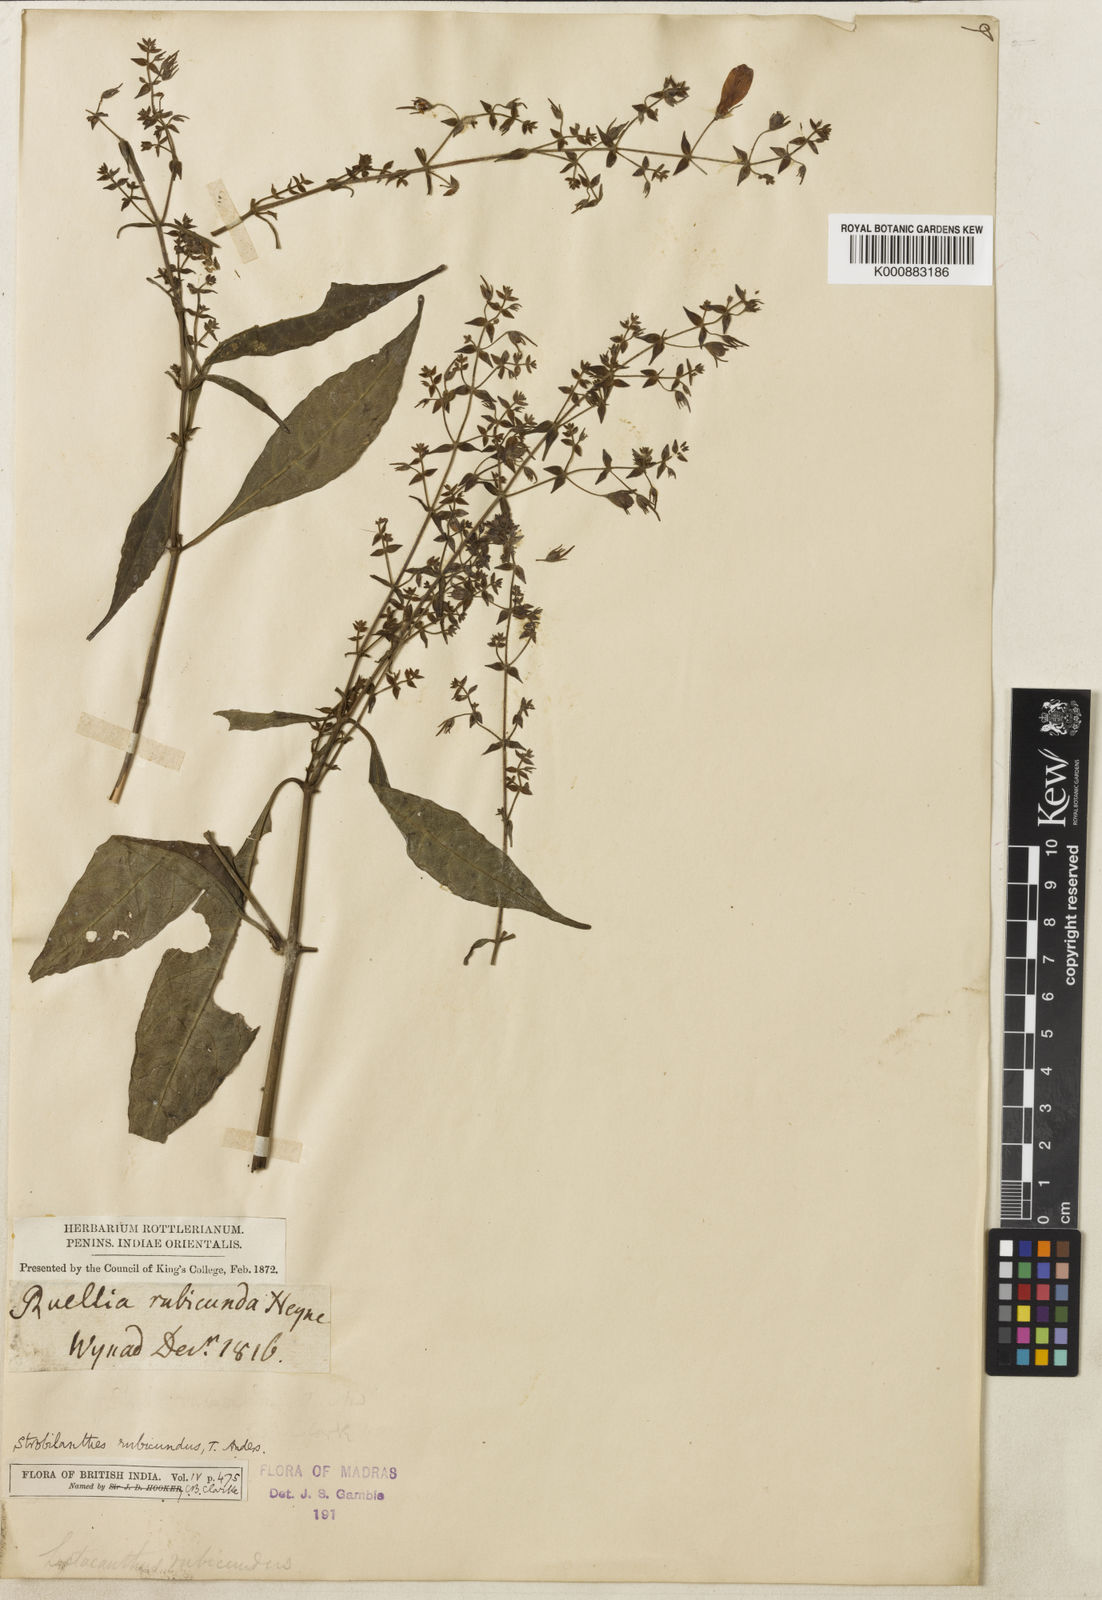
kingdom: Plantae
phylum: Tracheophyta
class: Magnoliopsida
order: Lamiales
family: Acanthaceae
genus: Strobilanthes
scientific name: Strobilanthes rubicunda
